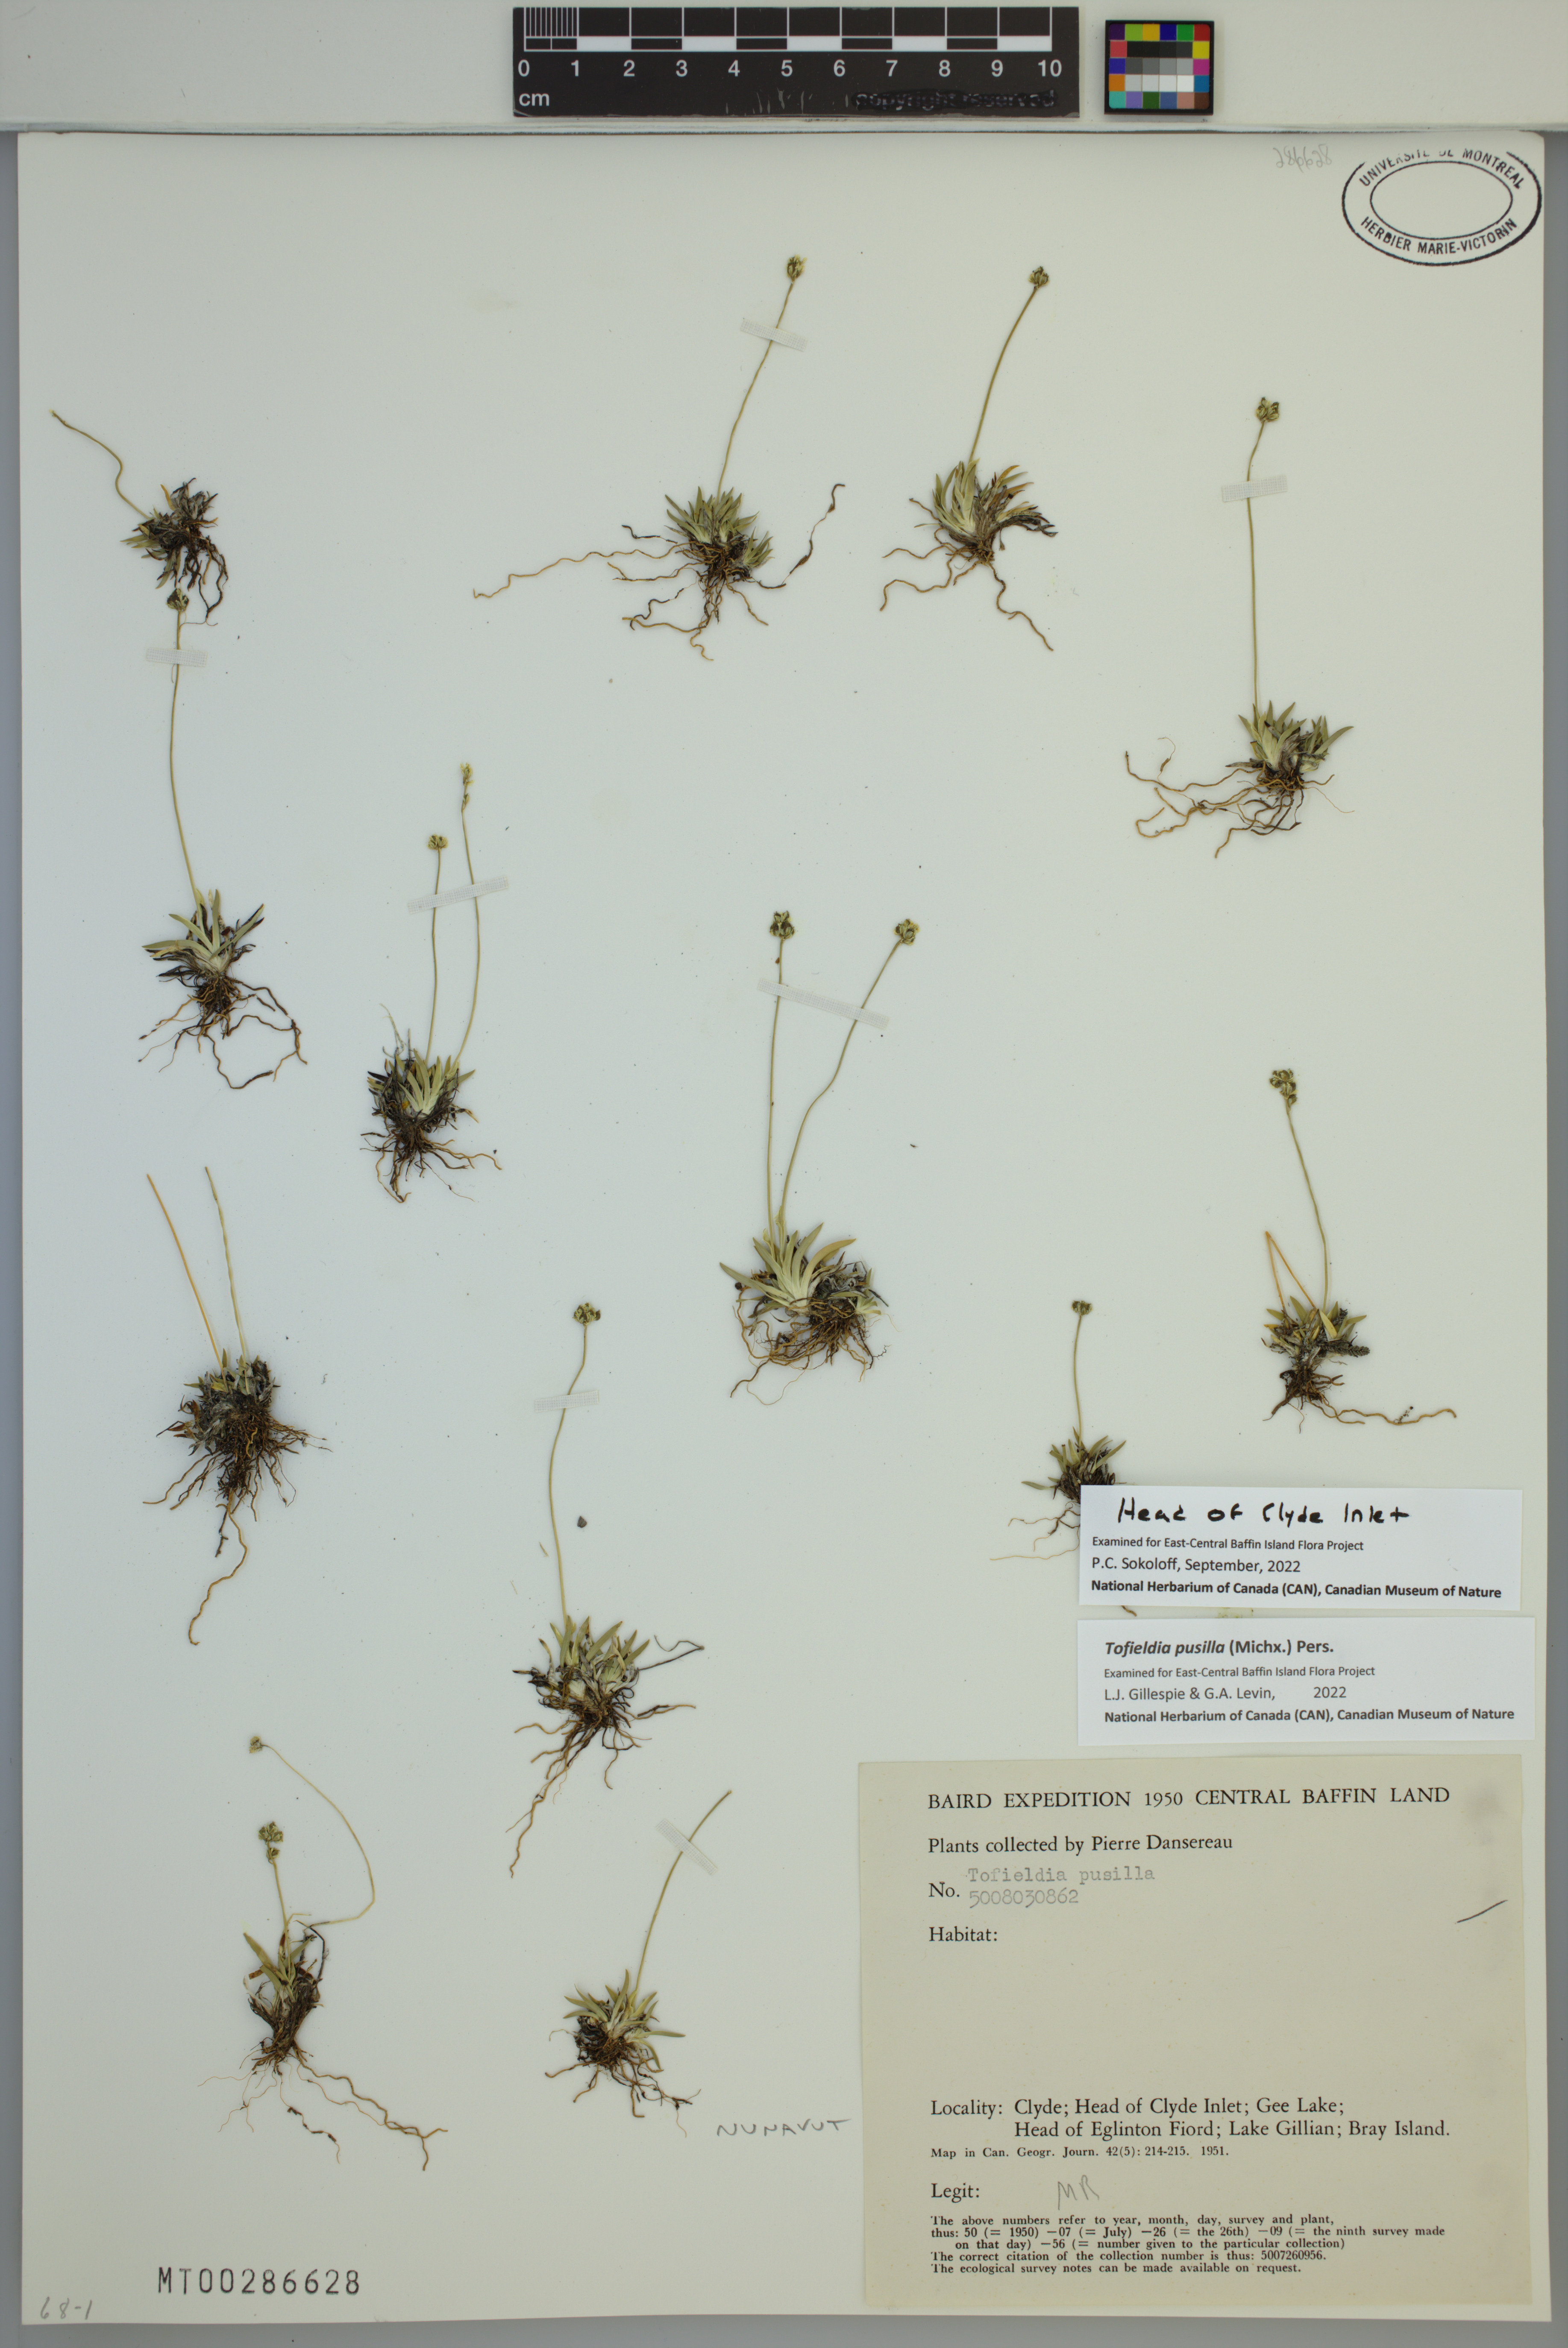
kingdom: Plantae
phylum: Tracheophyta
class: Liliopsida
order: Alismatales
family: Tofieldiaceae
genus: Tofieldia
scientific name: Tofieldia pusilla
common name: Scottish false asphodel
